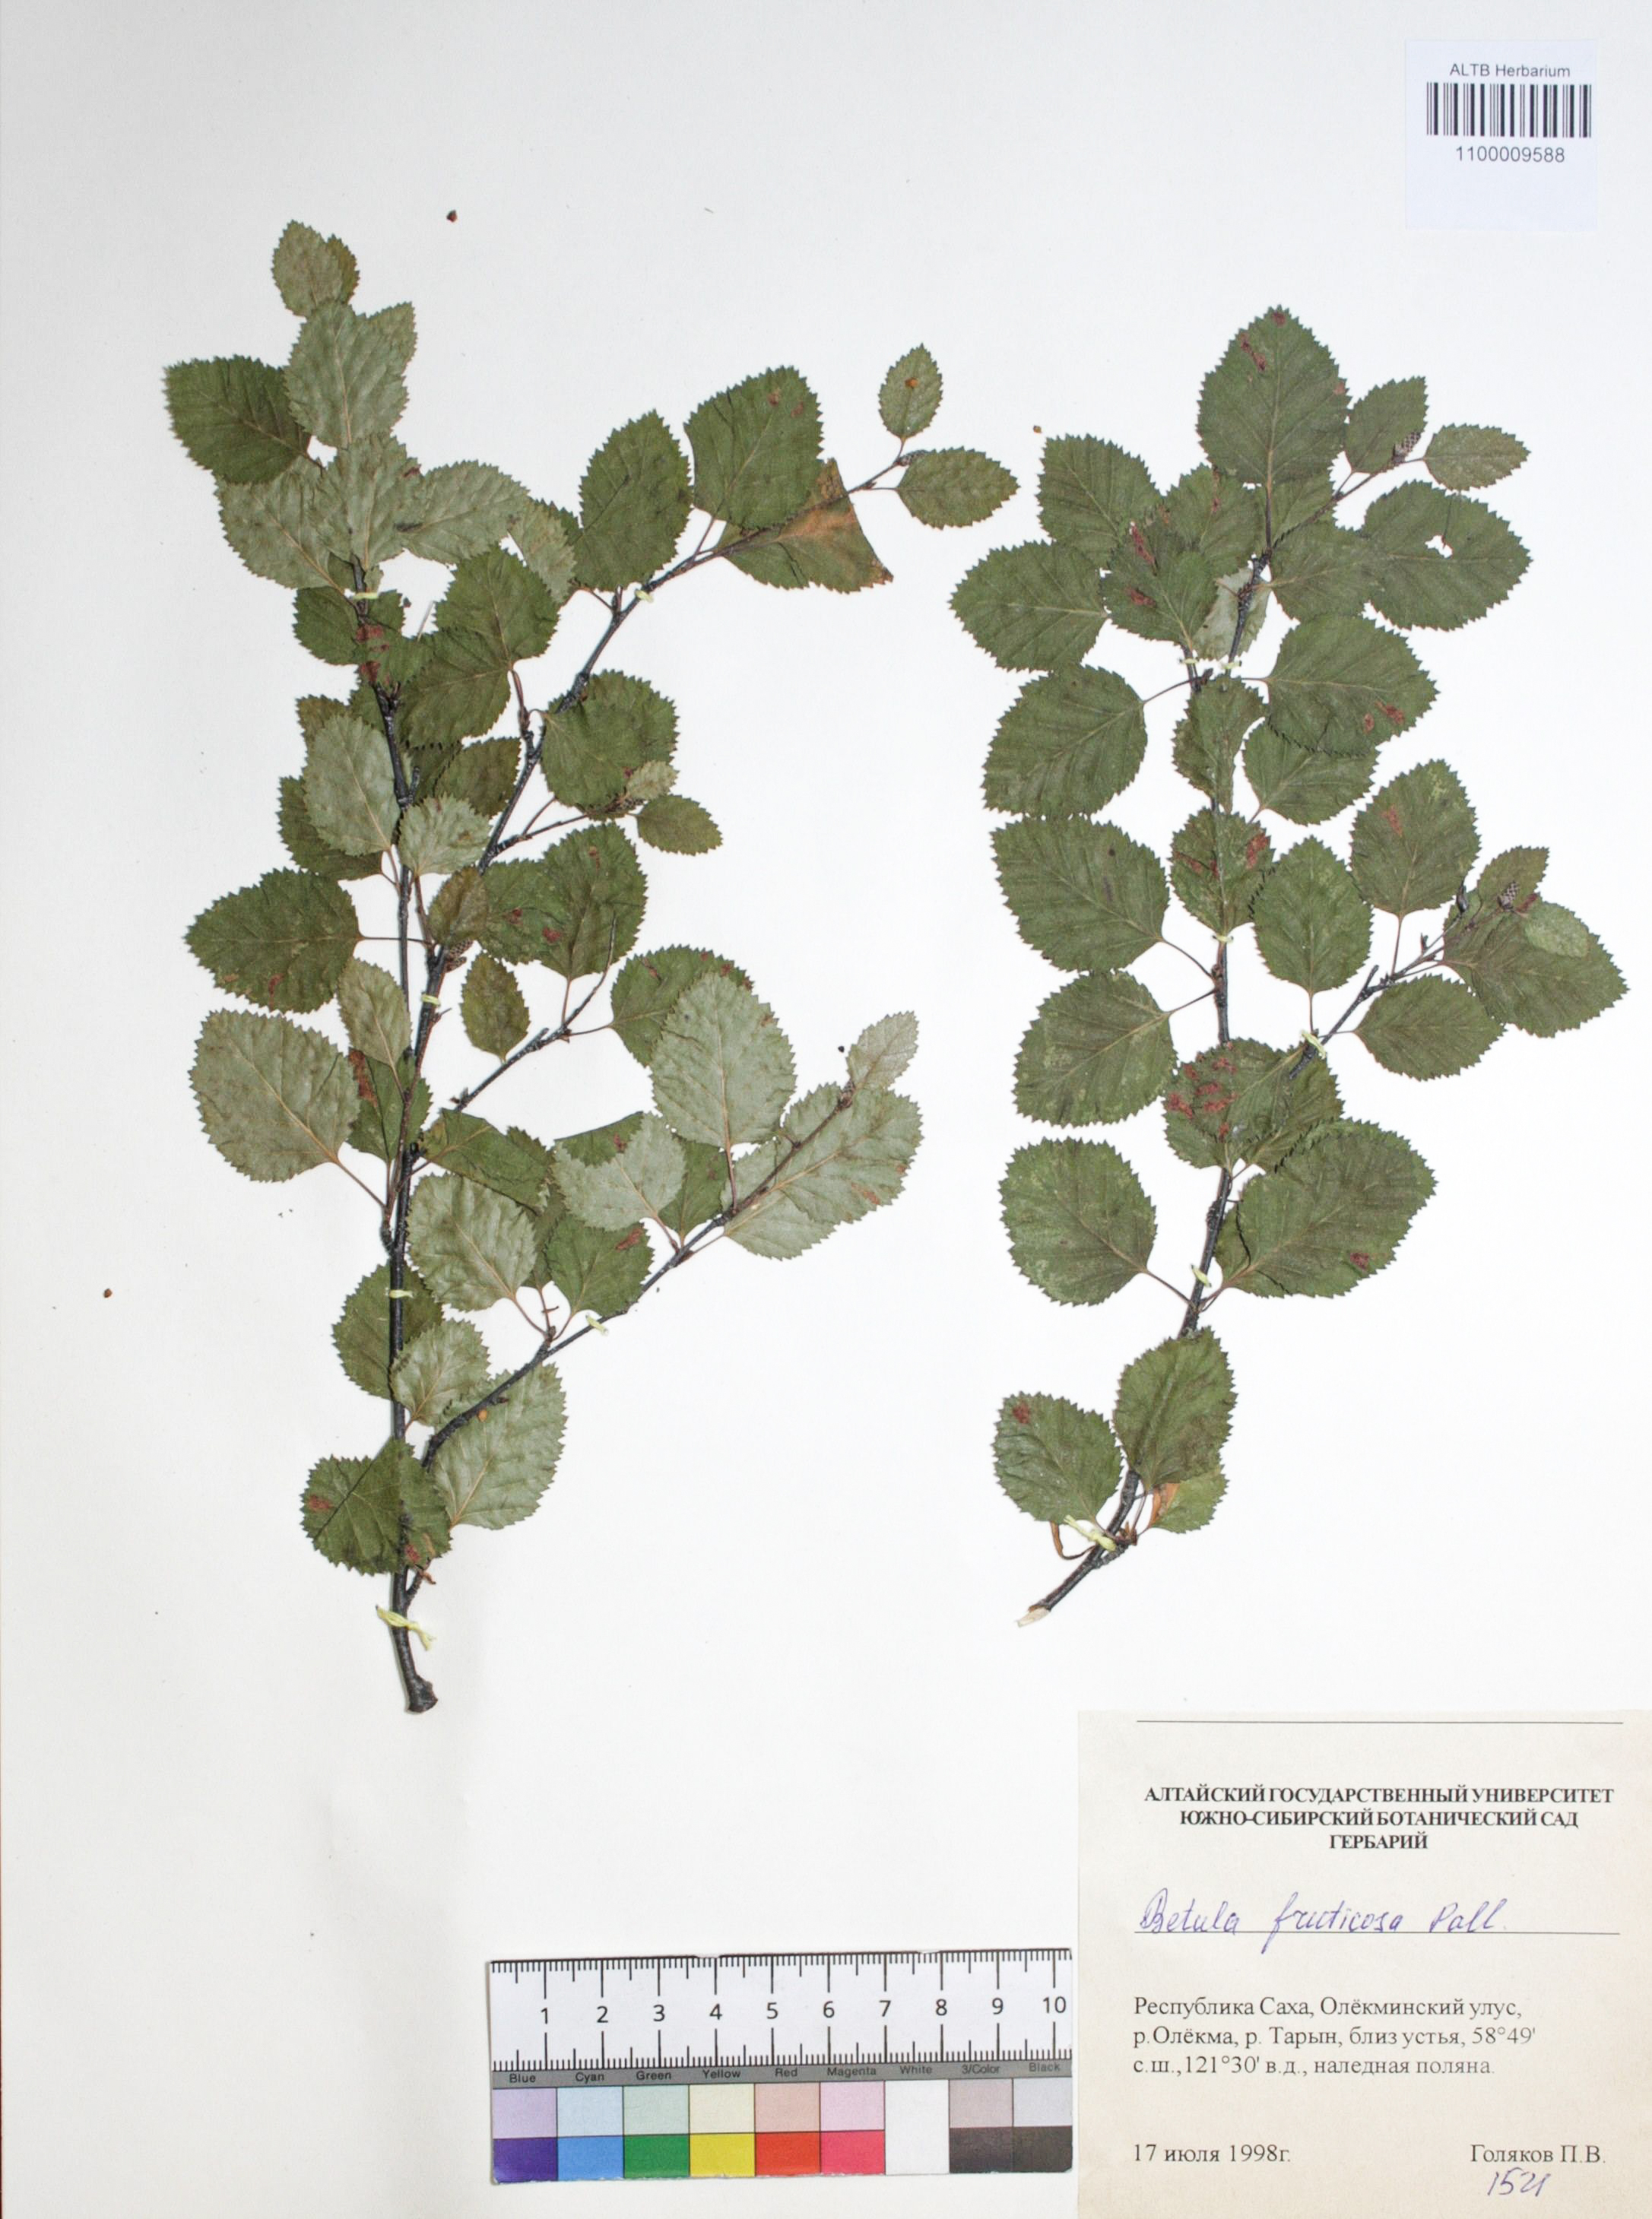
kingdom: Plantae
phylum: Tracheophyta
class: Magnoliopsida
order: Fagales
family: Betulaceae
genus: Betula
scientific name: Betula fruticosa
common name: Japanese bog birch
